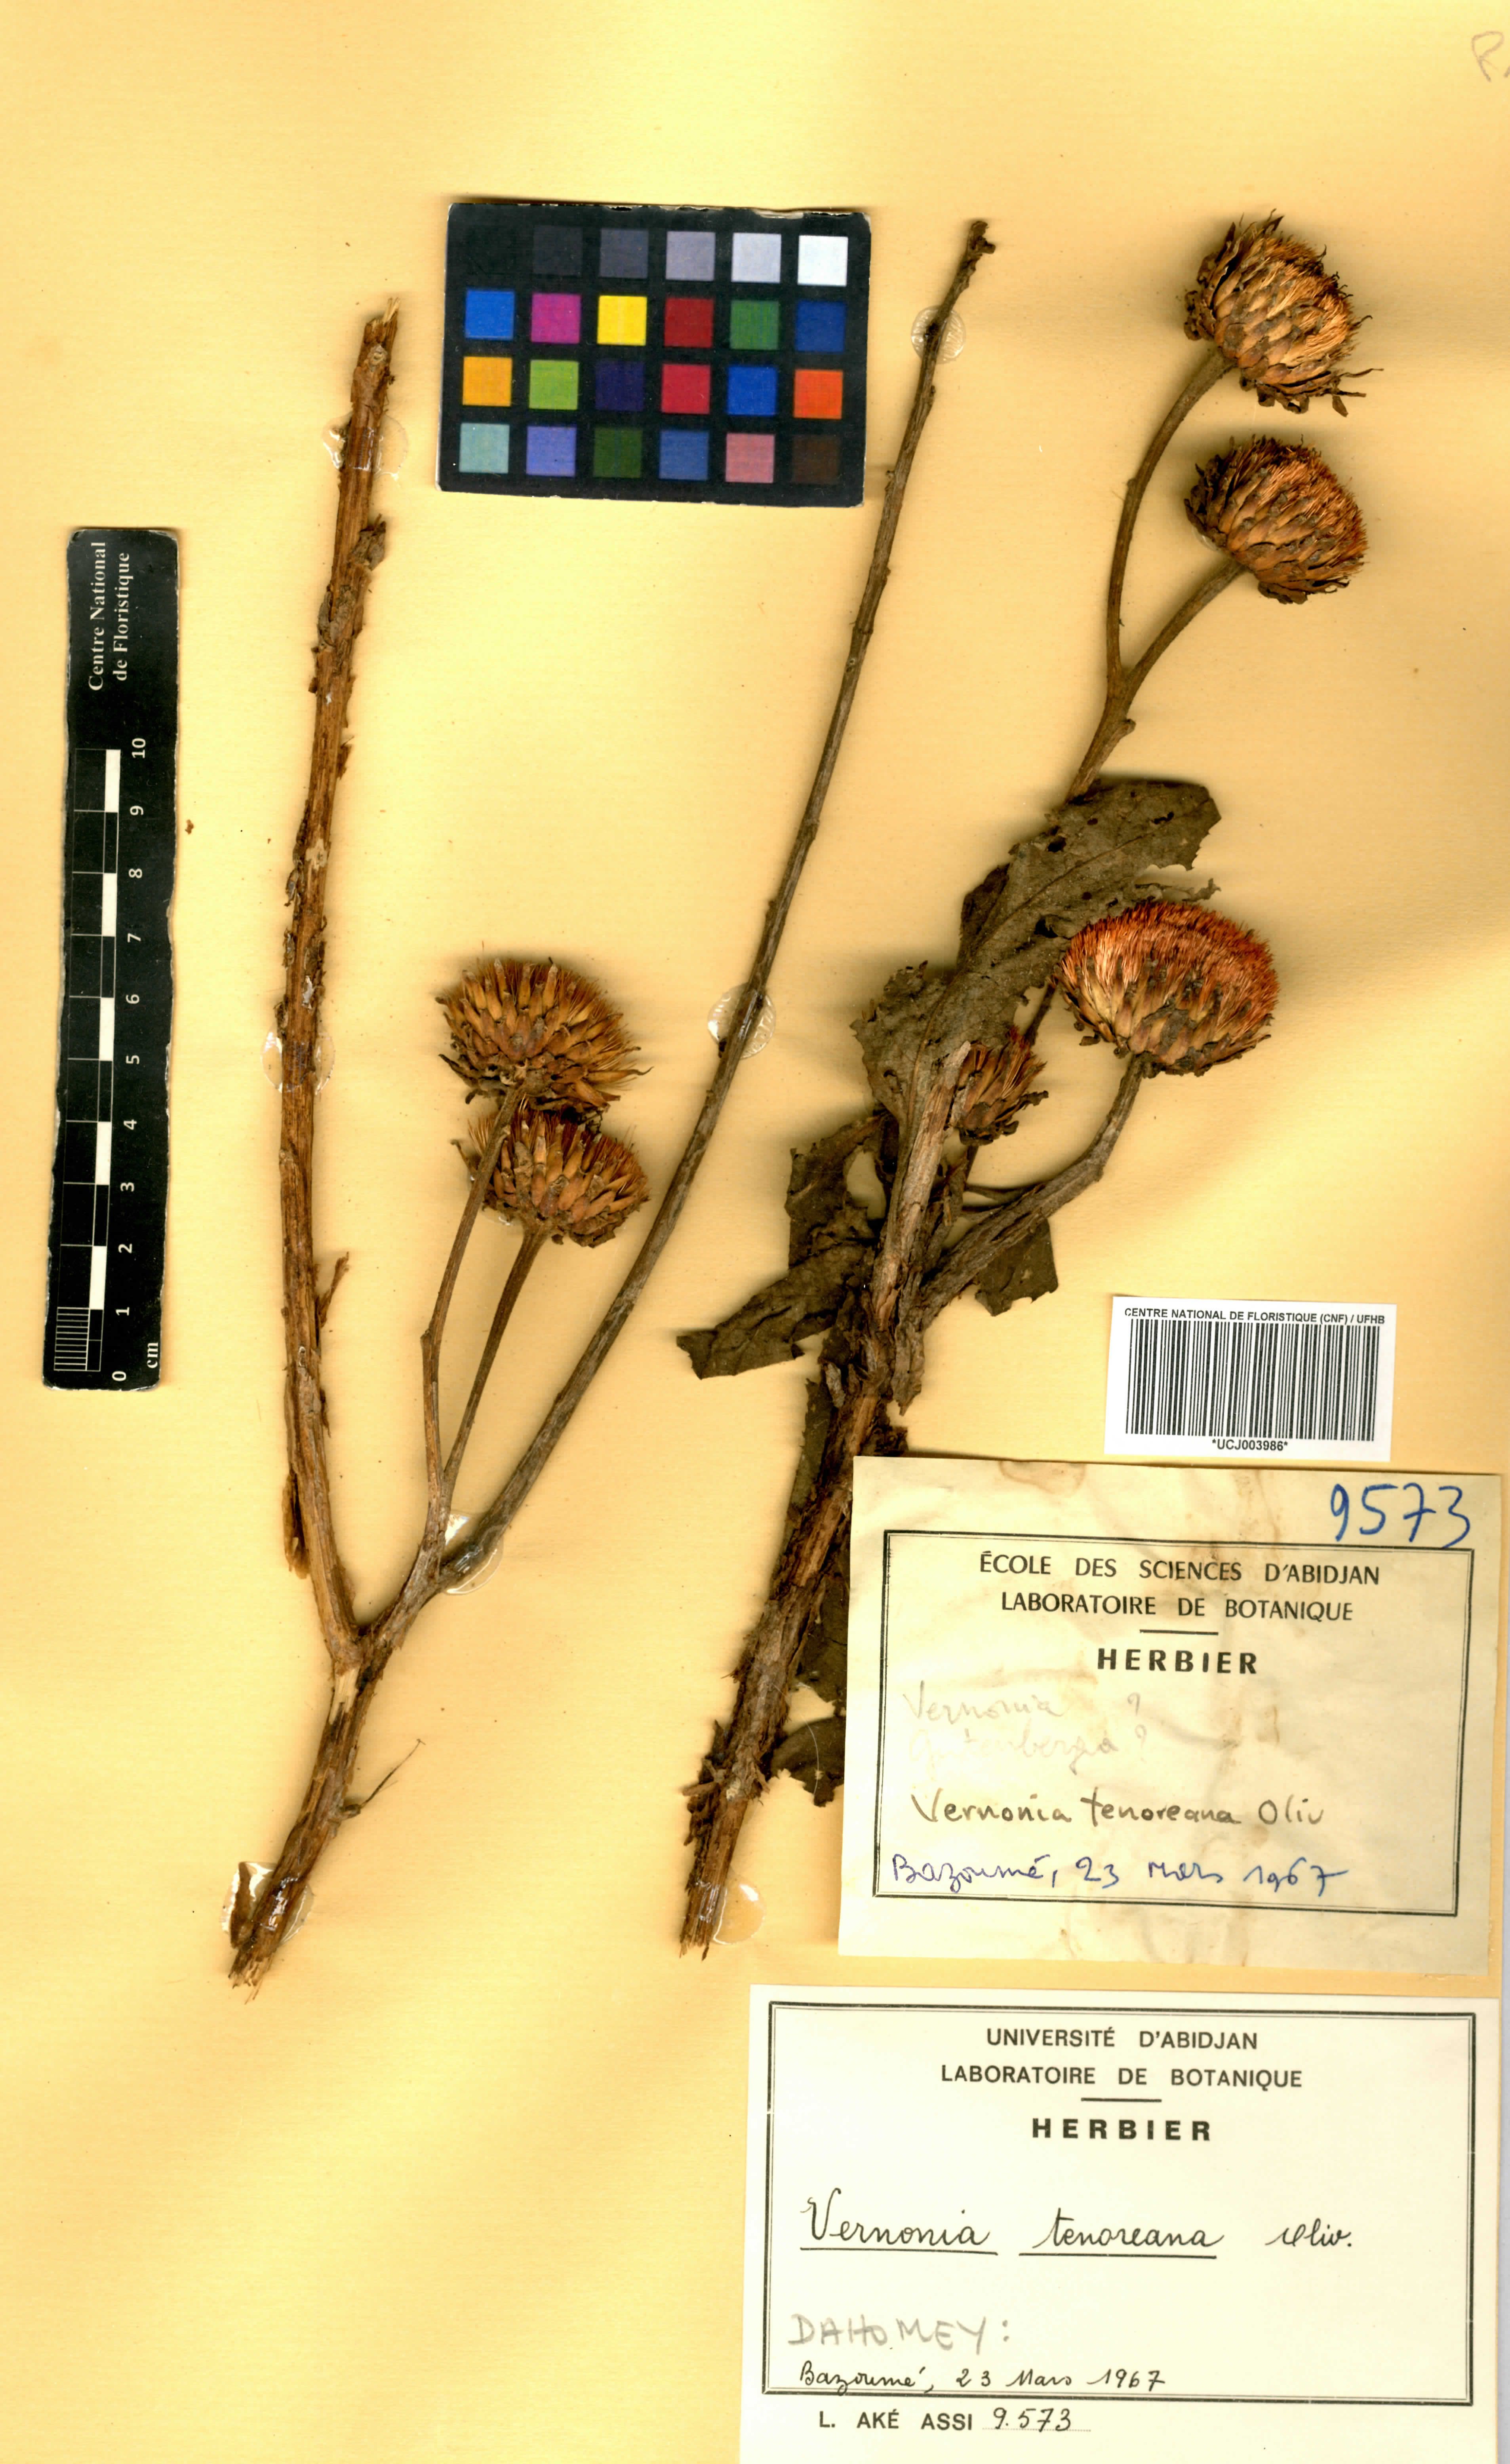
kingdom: Plantae
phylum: Tracheophyta
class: Magnoliopsida
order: Asterales
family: Asteraceae
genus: Baccharoides
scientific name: Baccharoides tenoreana
